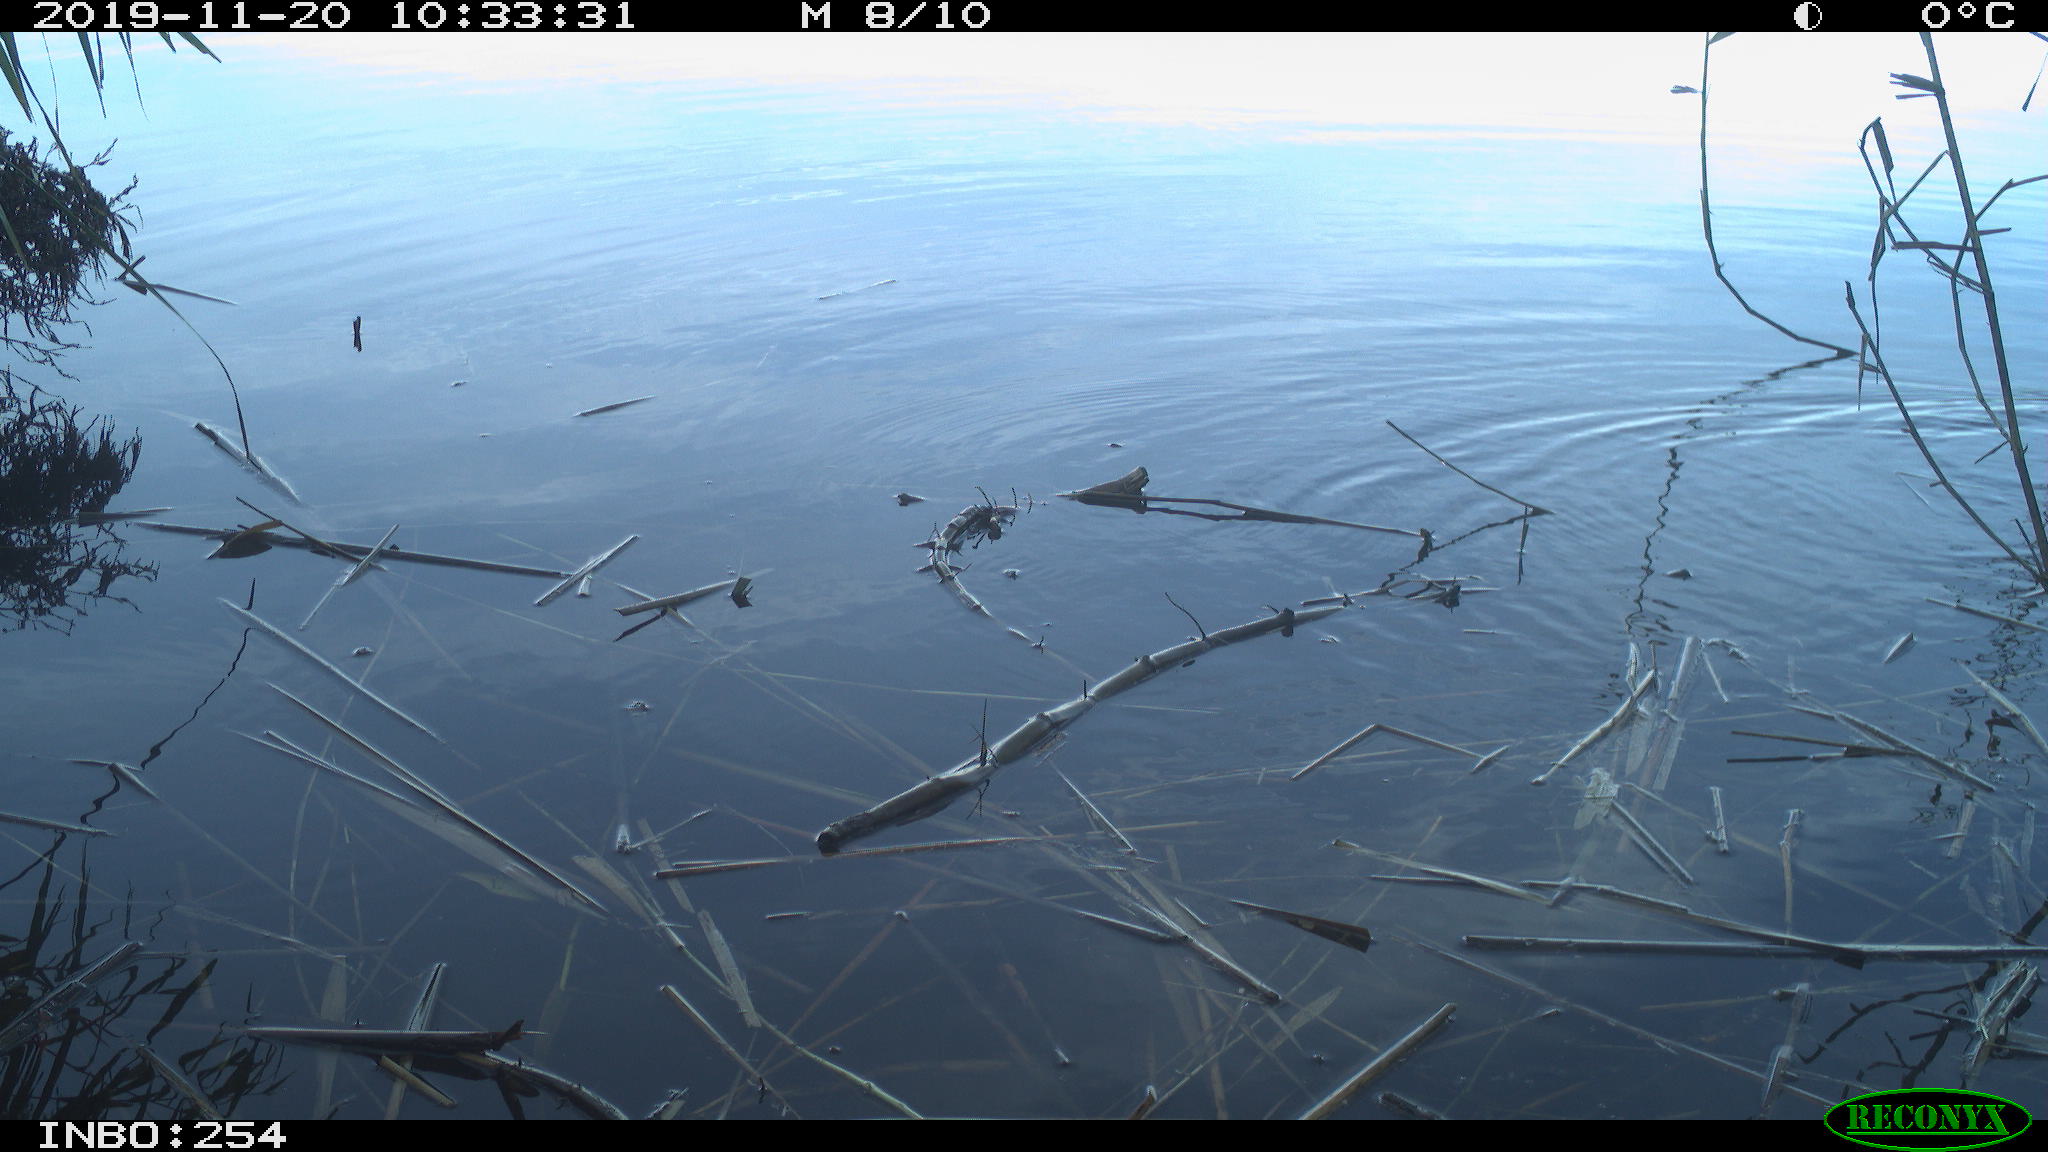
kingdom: Animalia
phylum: Chordata
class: Aves
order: Gruiformes
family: Rallidae
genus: Gallinula
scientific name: Gallinula chloropus
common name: Common moorhen
